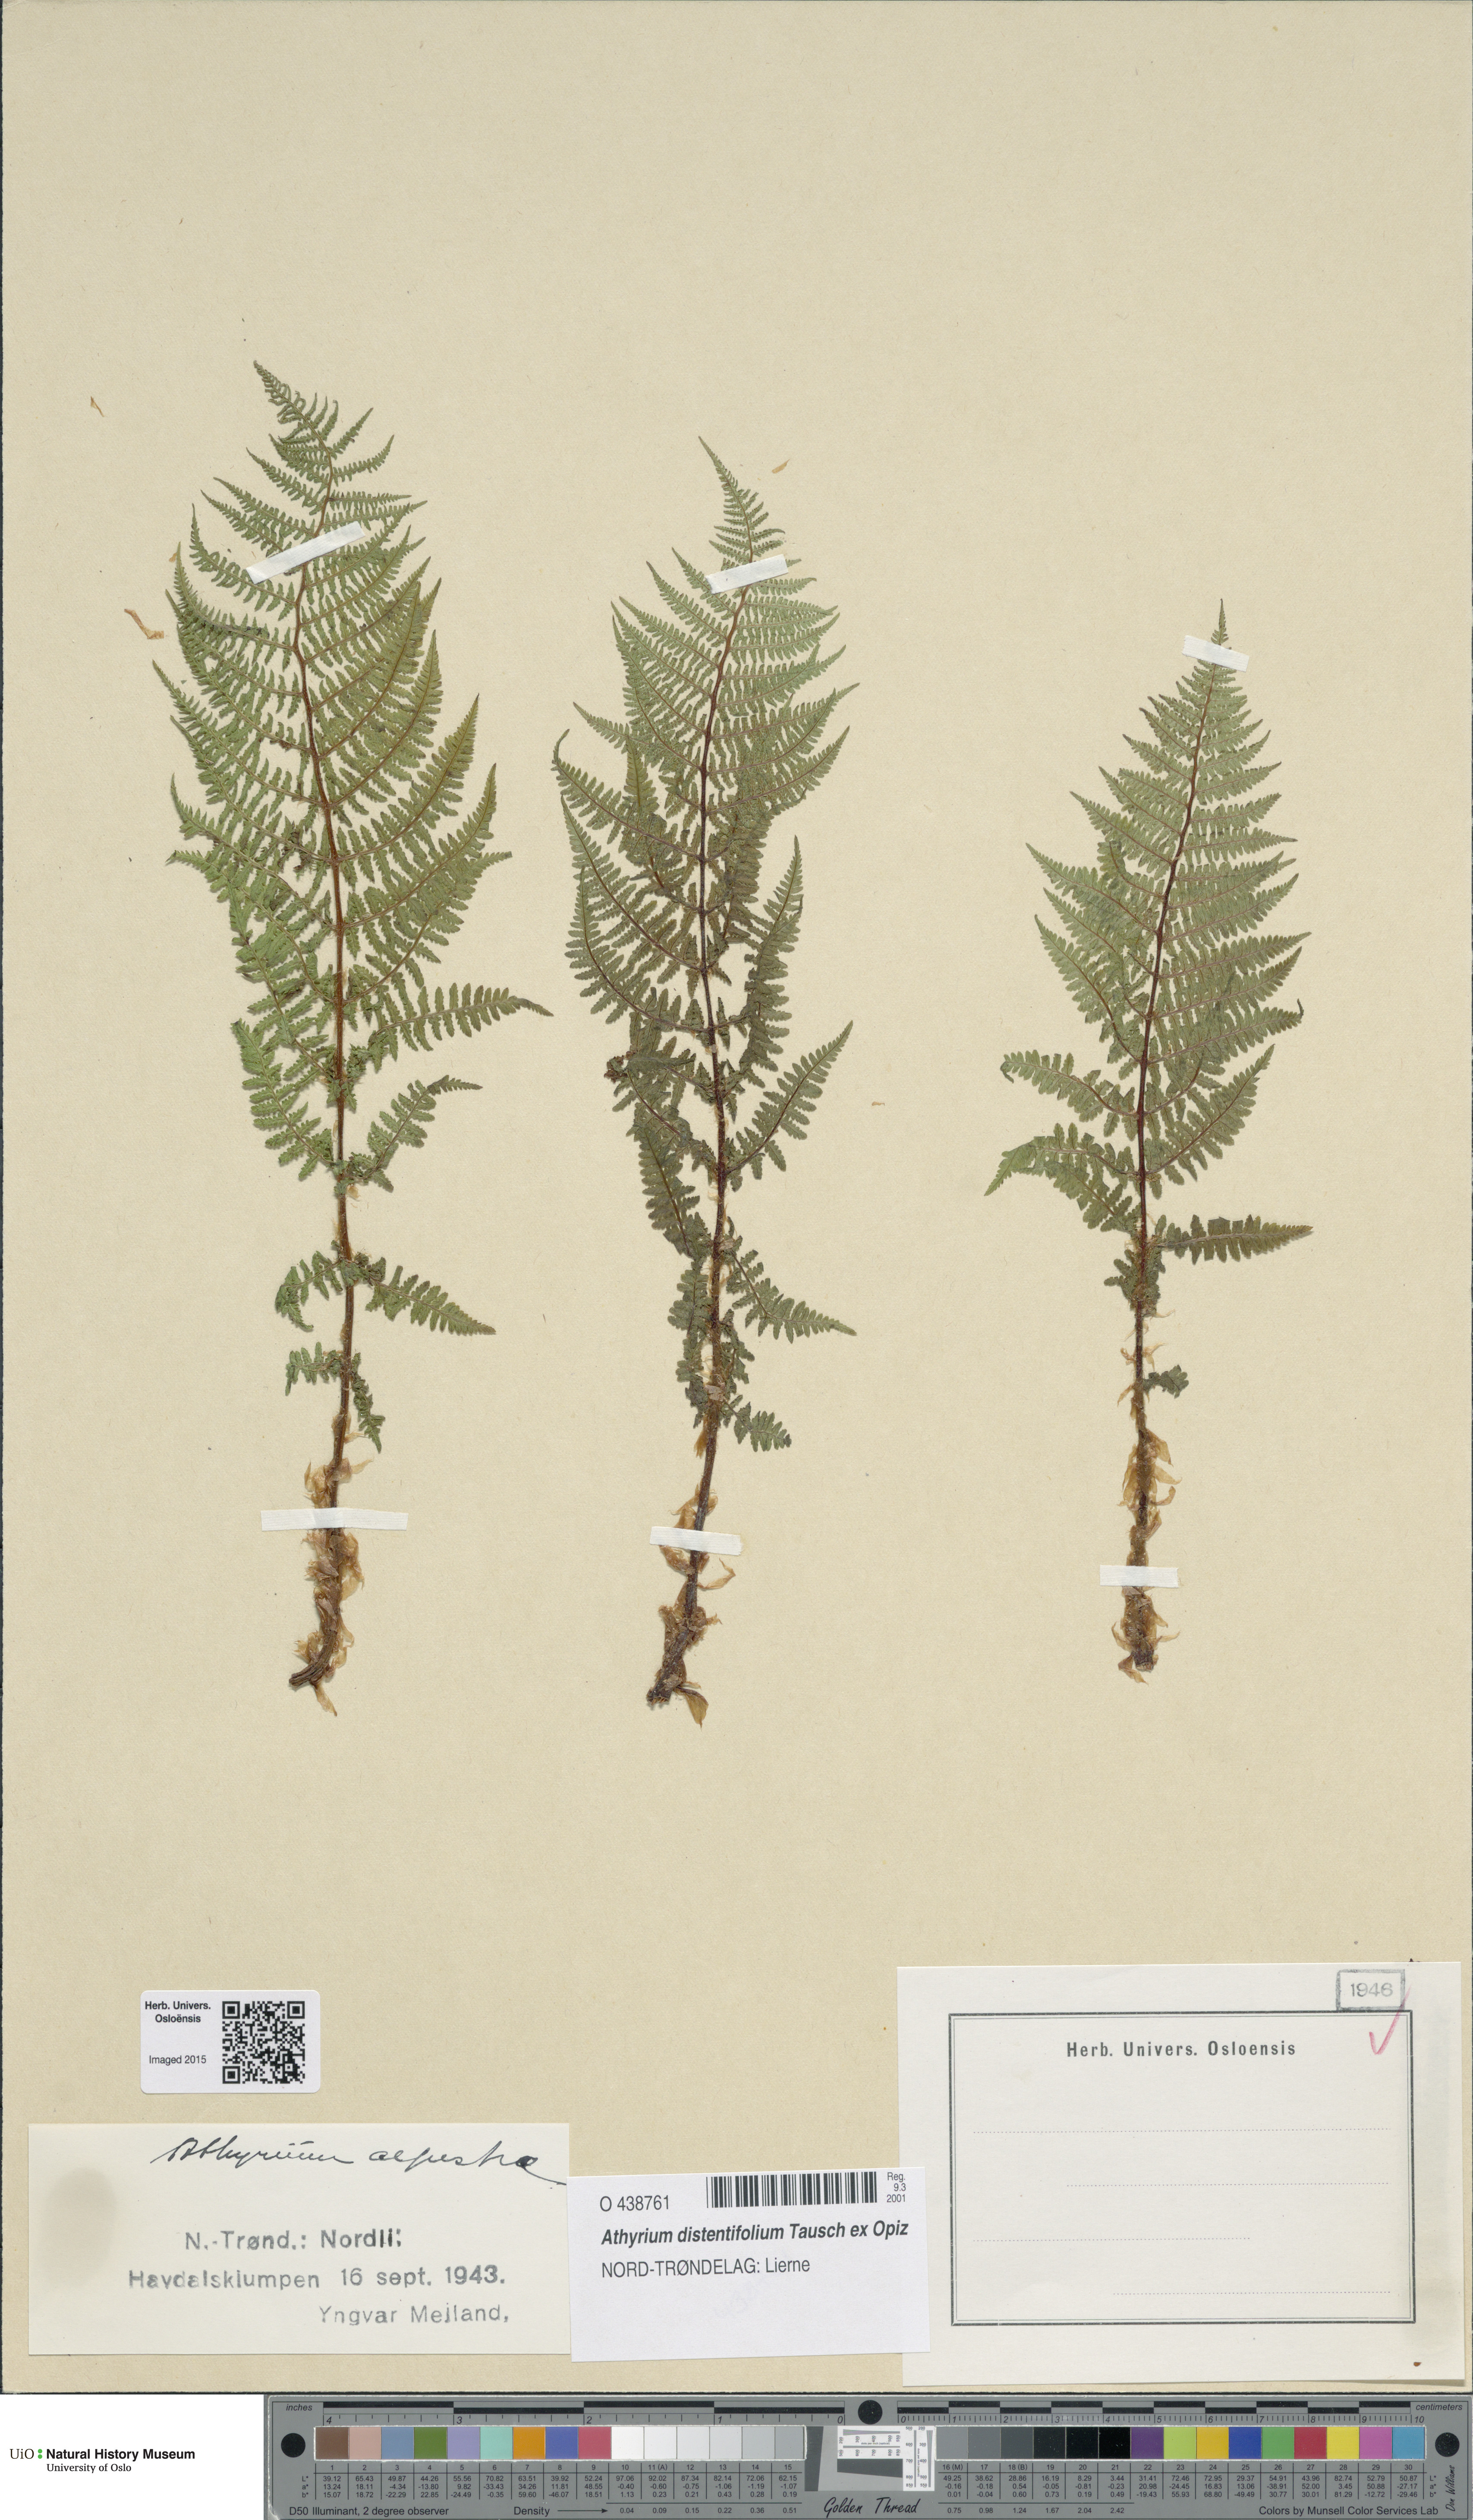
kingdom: Plantae
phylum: Tracheophyta
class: Polypodiopsida
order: Polypodiales
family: Athyriaceae
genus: Pseudathyrium
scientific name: Pseudathyrium alpestre
